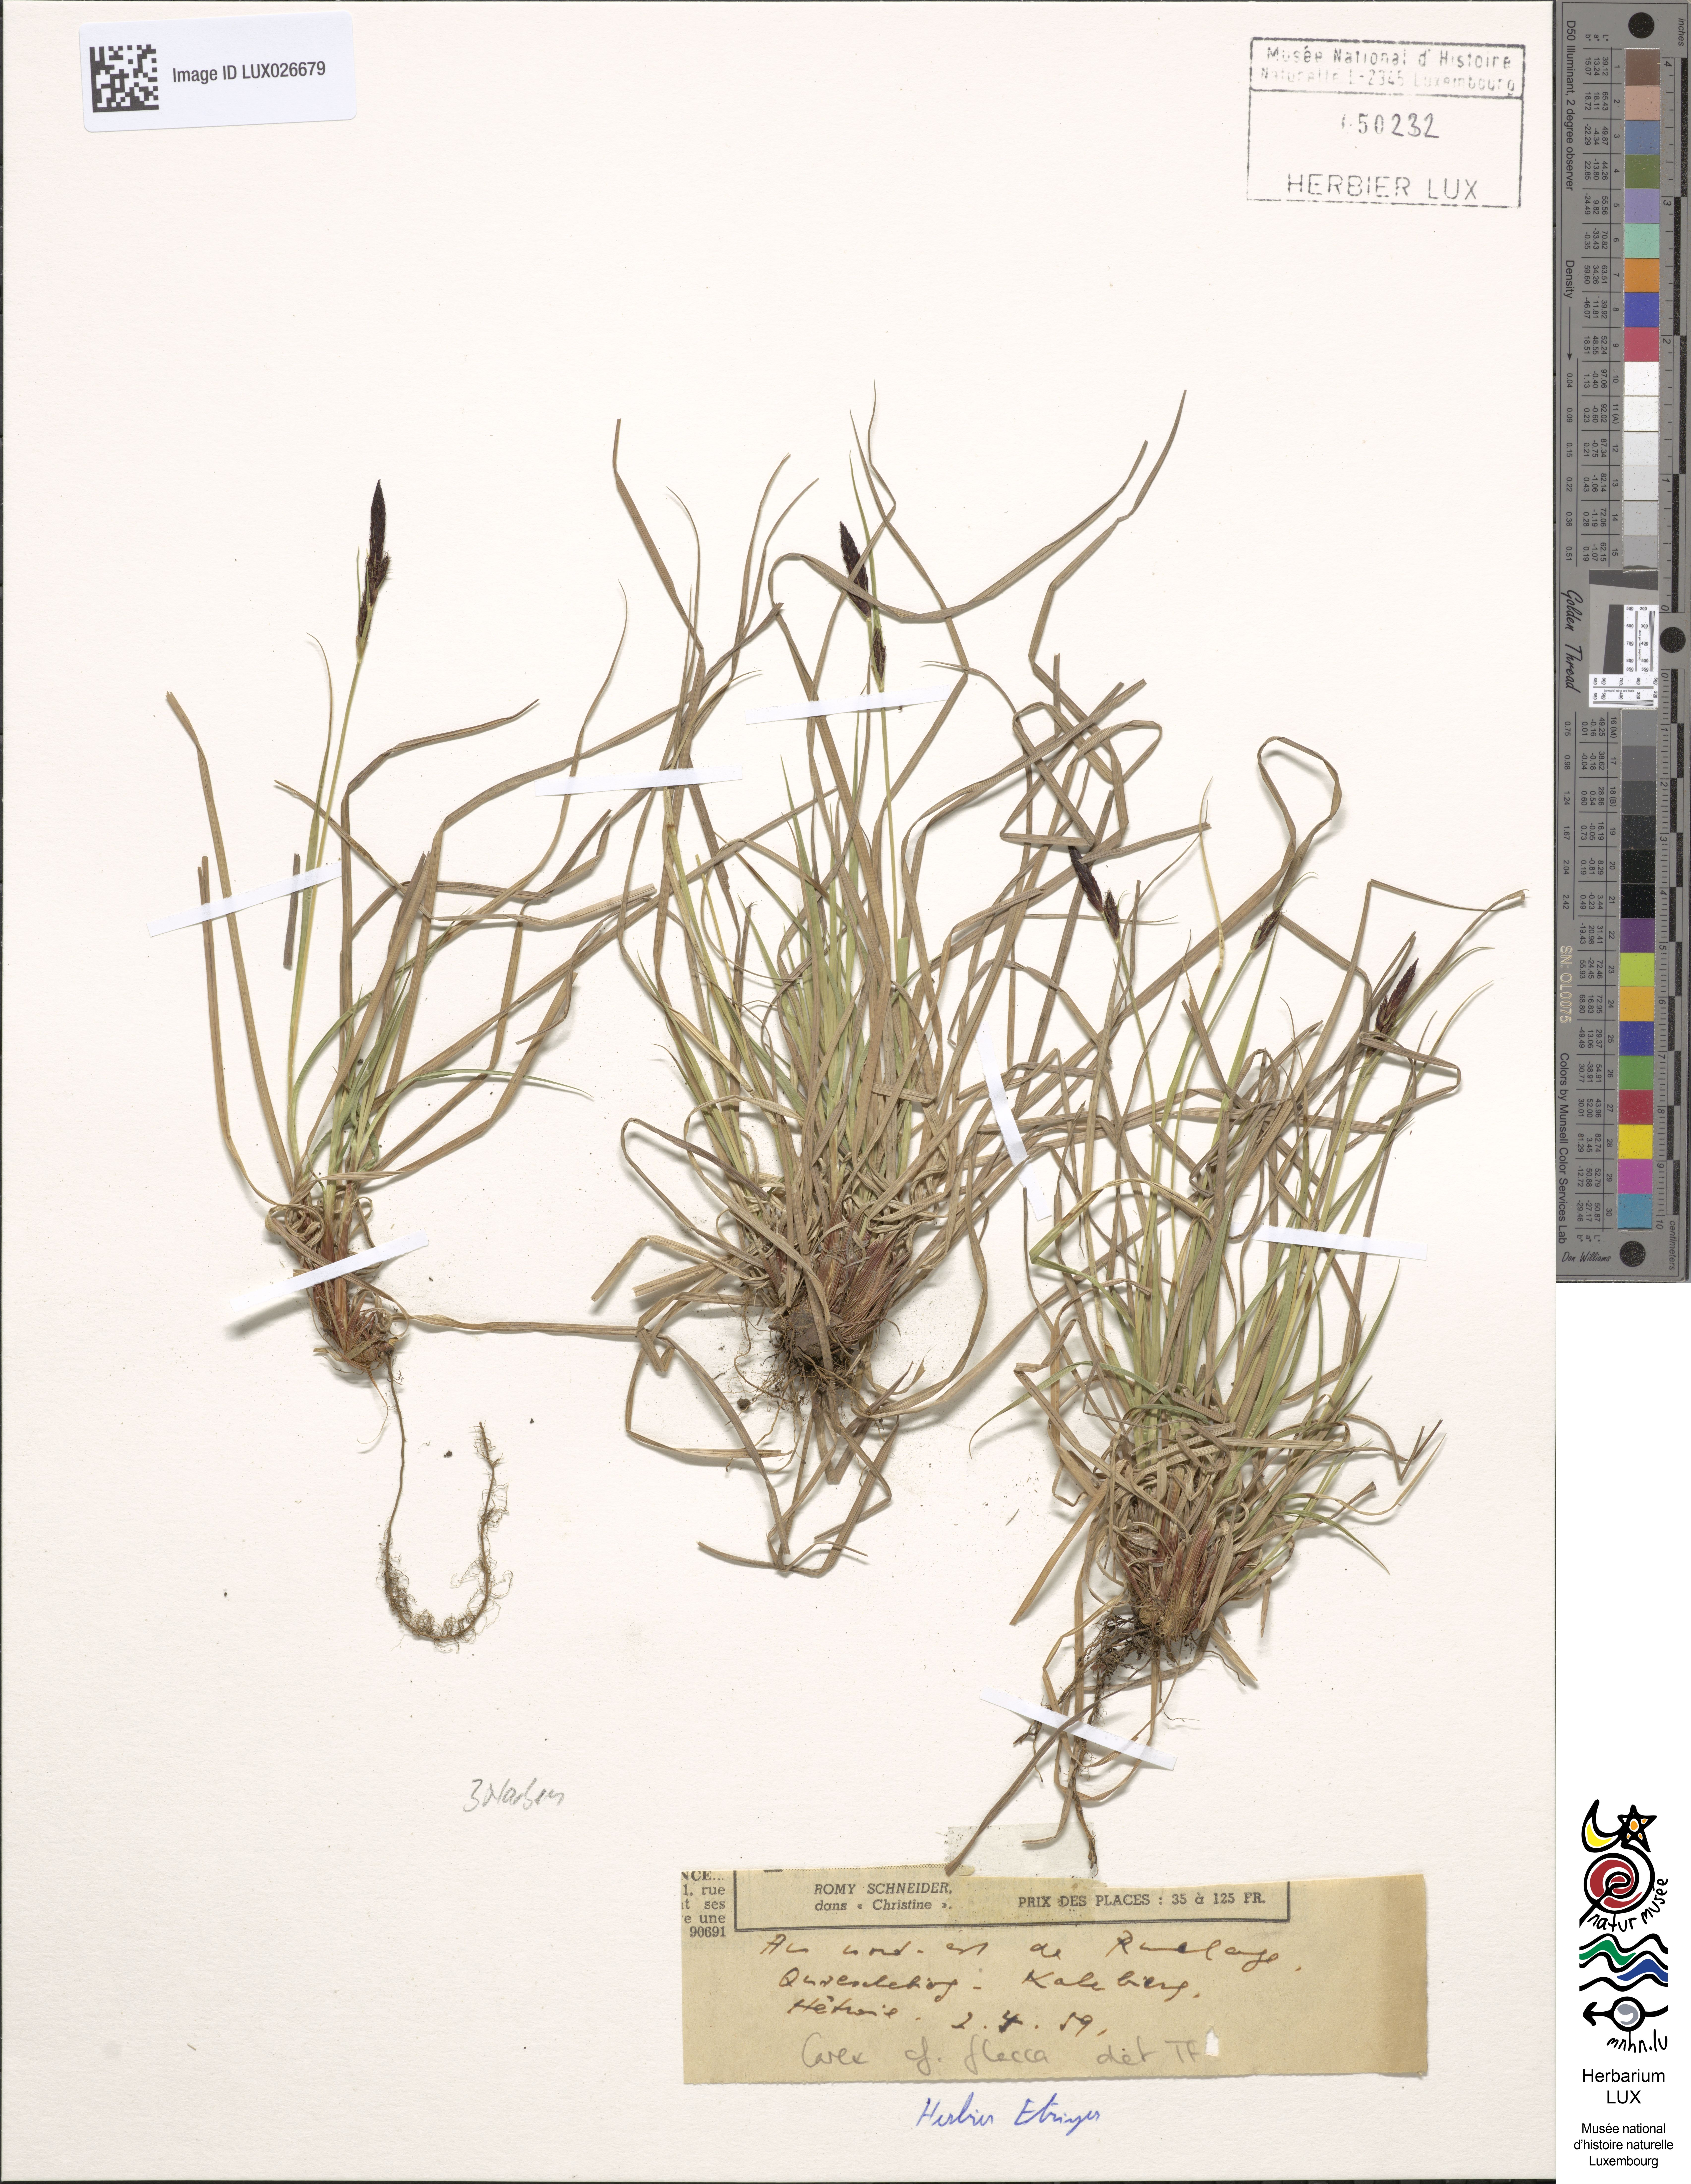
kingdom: Plantae
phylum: Tracheophyta
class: Liliopsida
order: Poales
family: Cyperaceae
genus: Carex
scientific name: Carex flacca
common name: Glaucous sedge
